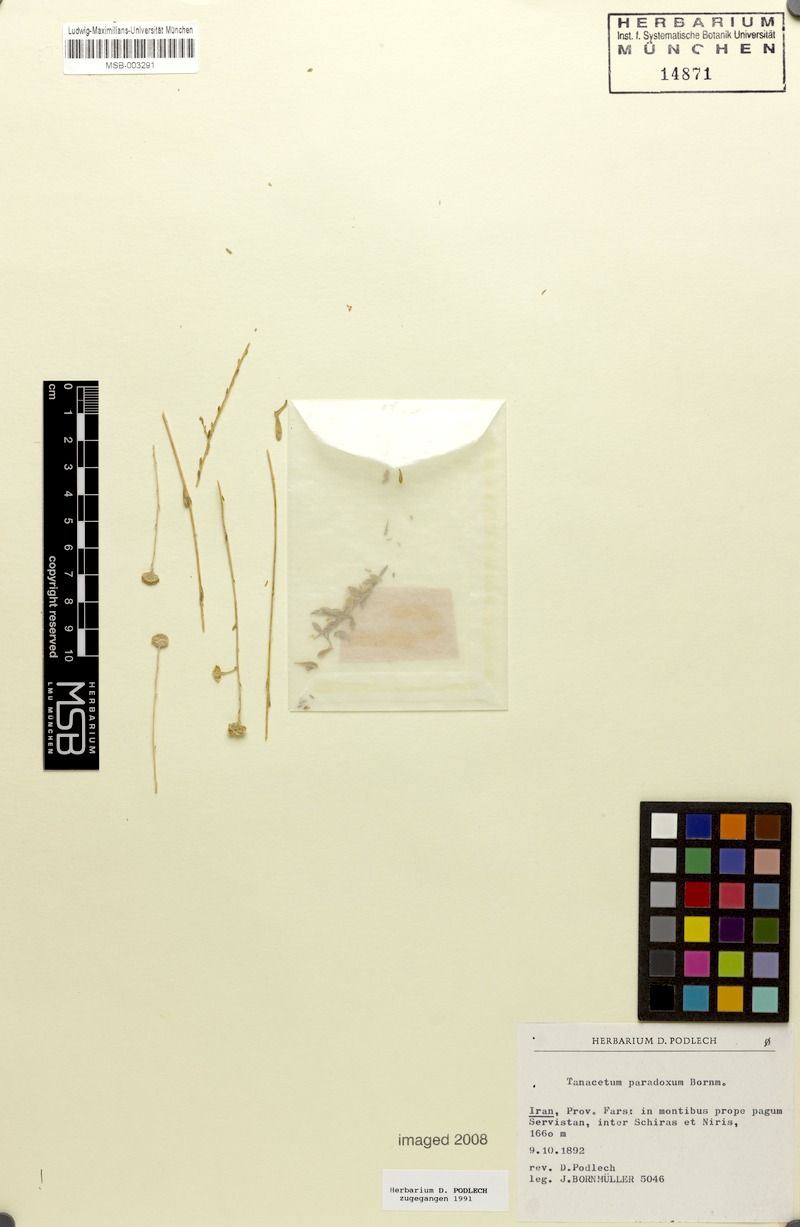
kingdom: Plantae
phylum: Tracheophyta
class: Magnoliopsida
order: Asterales
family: Asteraceae
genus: Tanacetum
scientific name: Tanacetum paradoxum
